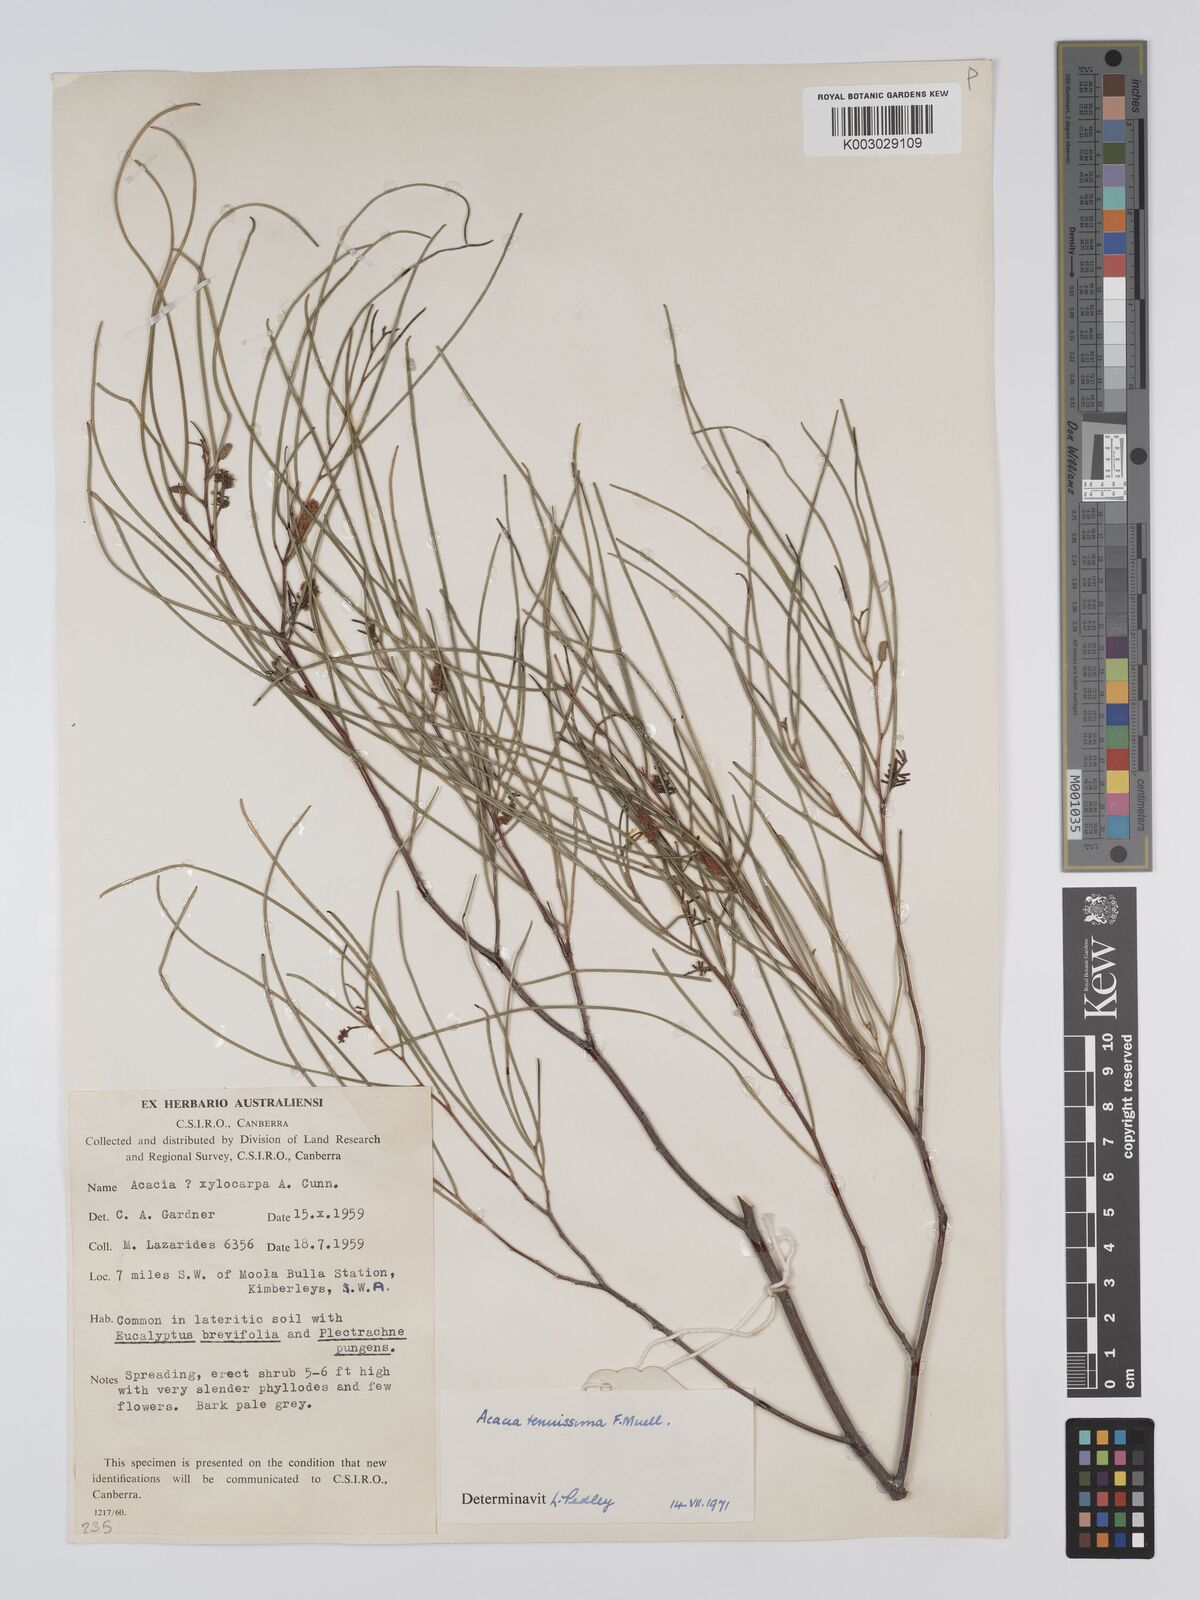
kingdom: Plantae
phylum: Tracheophyta
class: Magnoliopsida
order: Fabales
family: Fabaceae
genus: Acacia
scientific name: Acacia tenuissima
